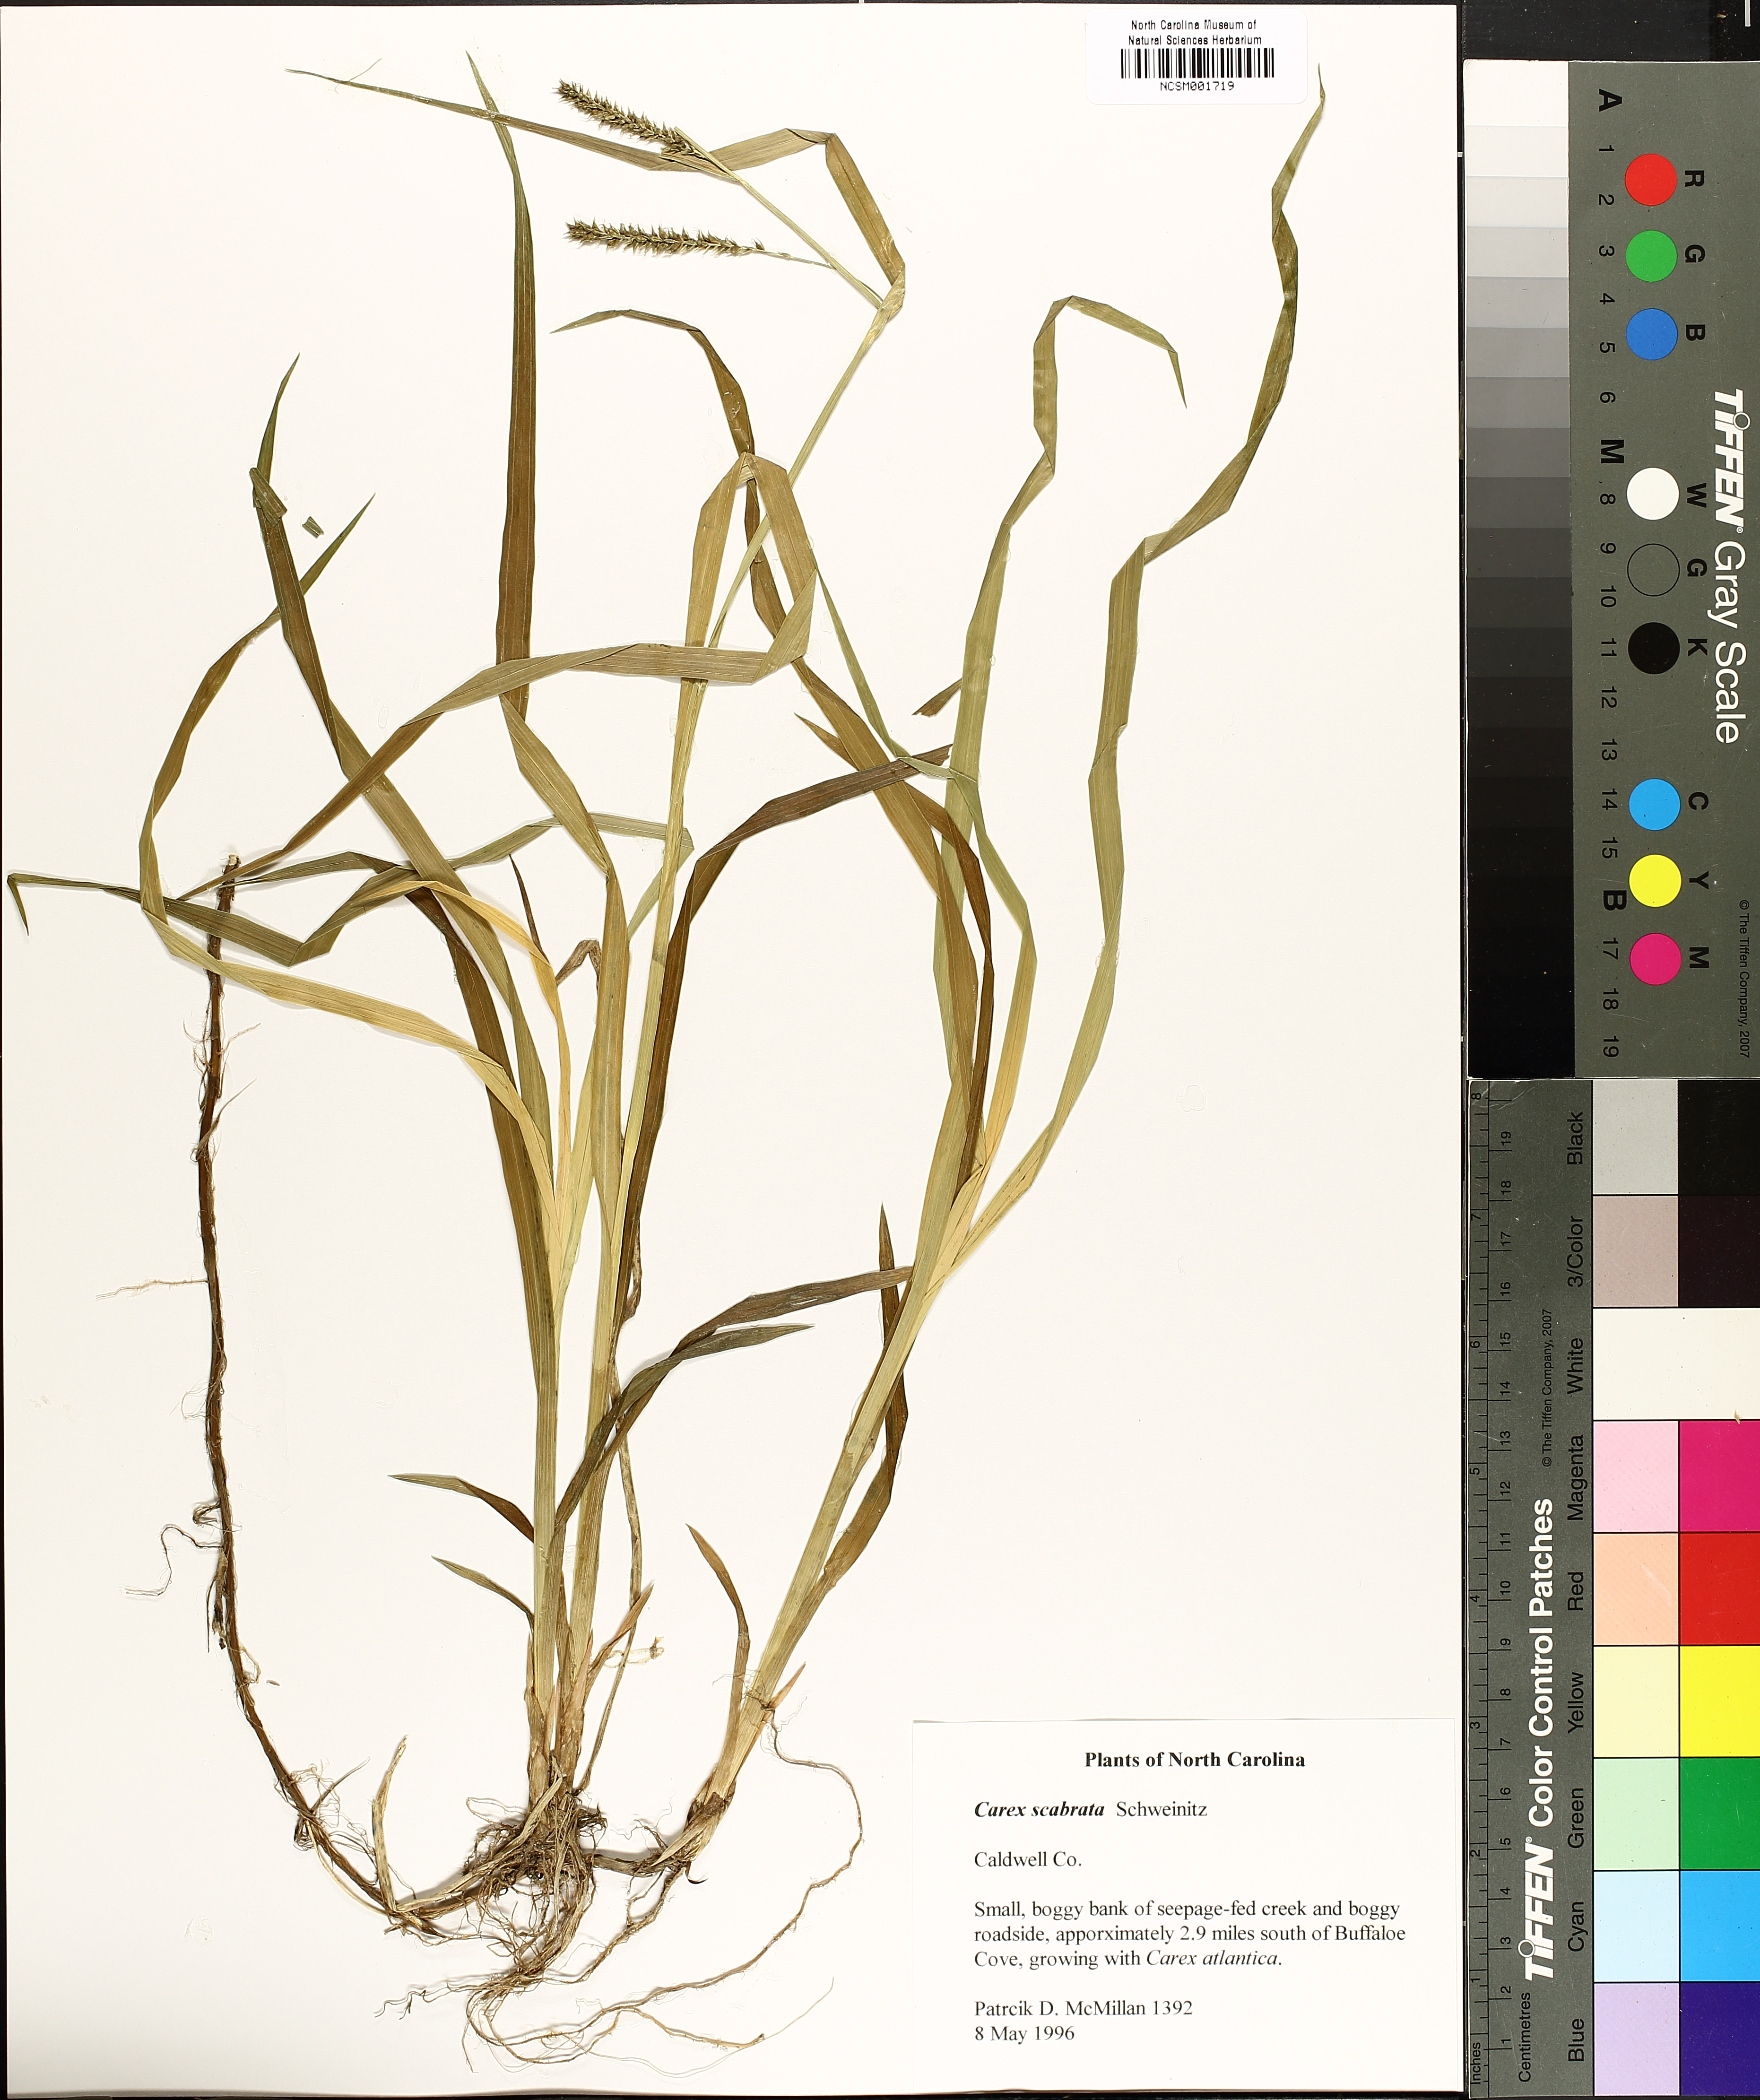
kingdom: Plantae
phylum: Tracheophyta
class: Liliopsida
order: Poales
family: Cyperaceae
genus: Carex
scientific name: Carex scabrata
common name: Eastern rough sedge
